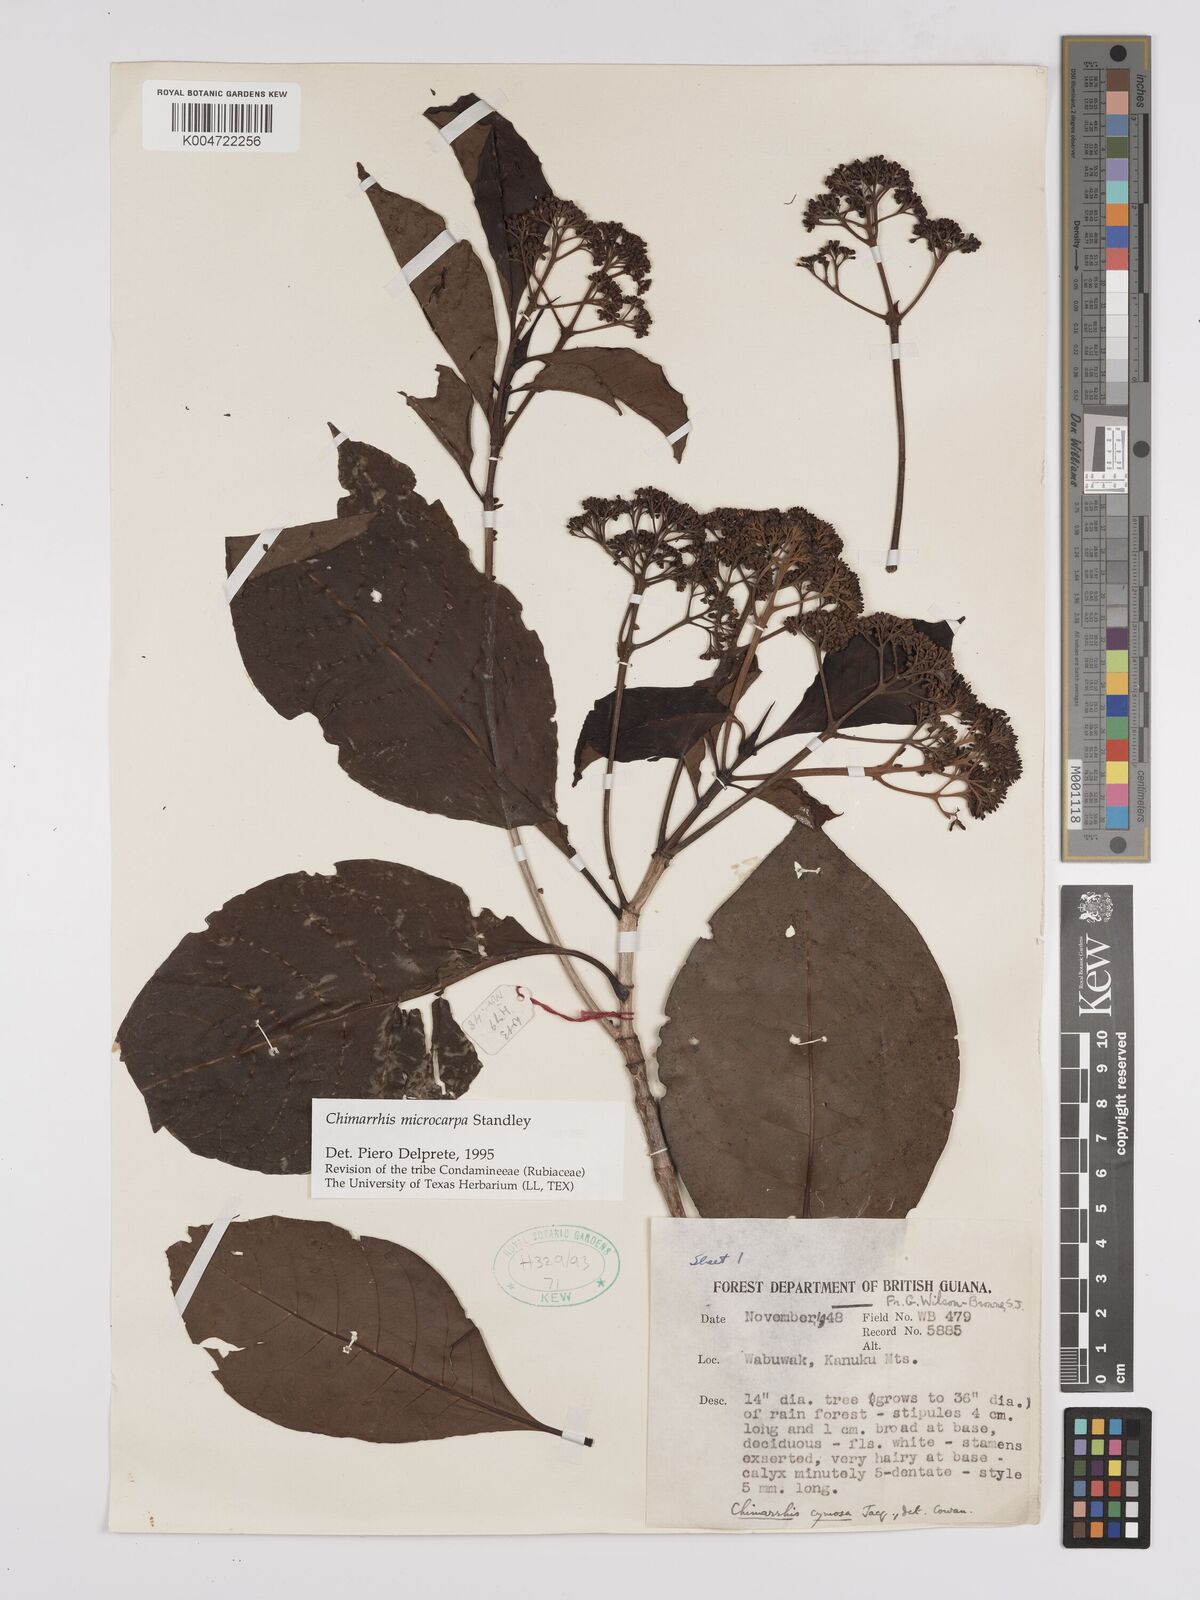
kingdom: Plantae
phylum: Tracheophyta
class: Magnoliopsida
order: Gentianales
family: Rubiaceae
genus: Chimarrhis
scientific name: Chimarrhis microcarpa
